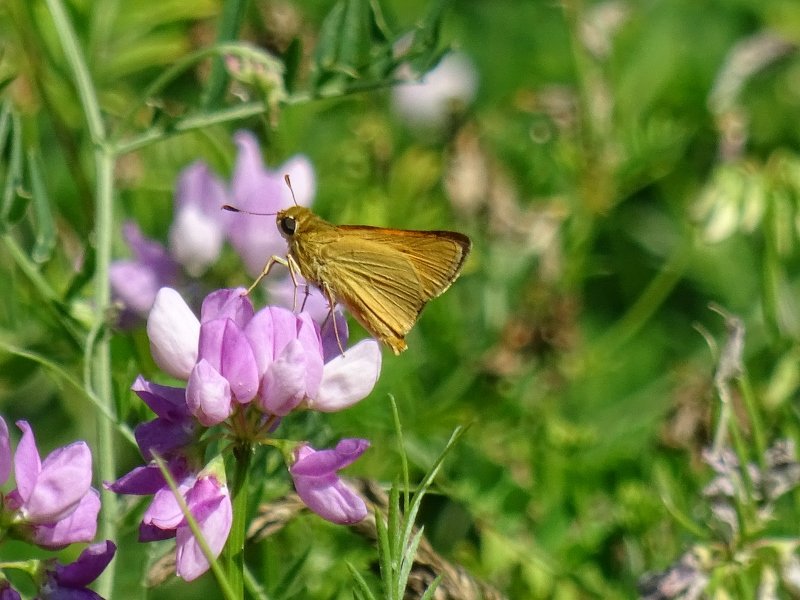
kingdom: Animalia
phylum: Arthropoda
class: Insecta
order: Lepidoptera
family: Hesperiidae
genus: Atrytone
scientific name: Atrytone delaware
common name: Delaware Skipper
